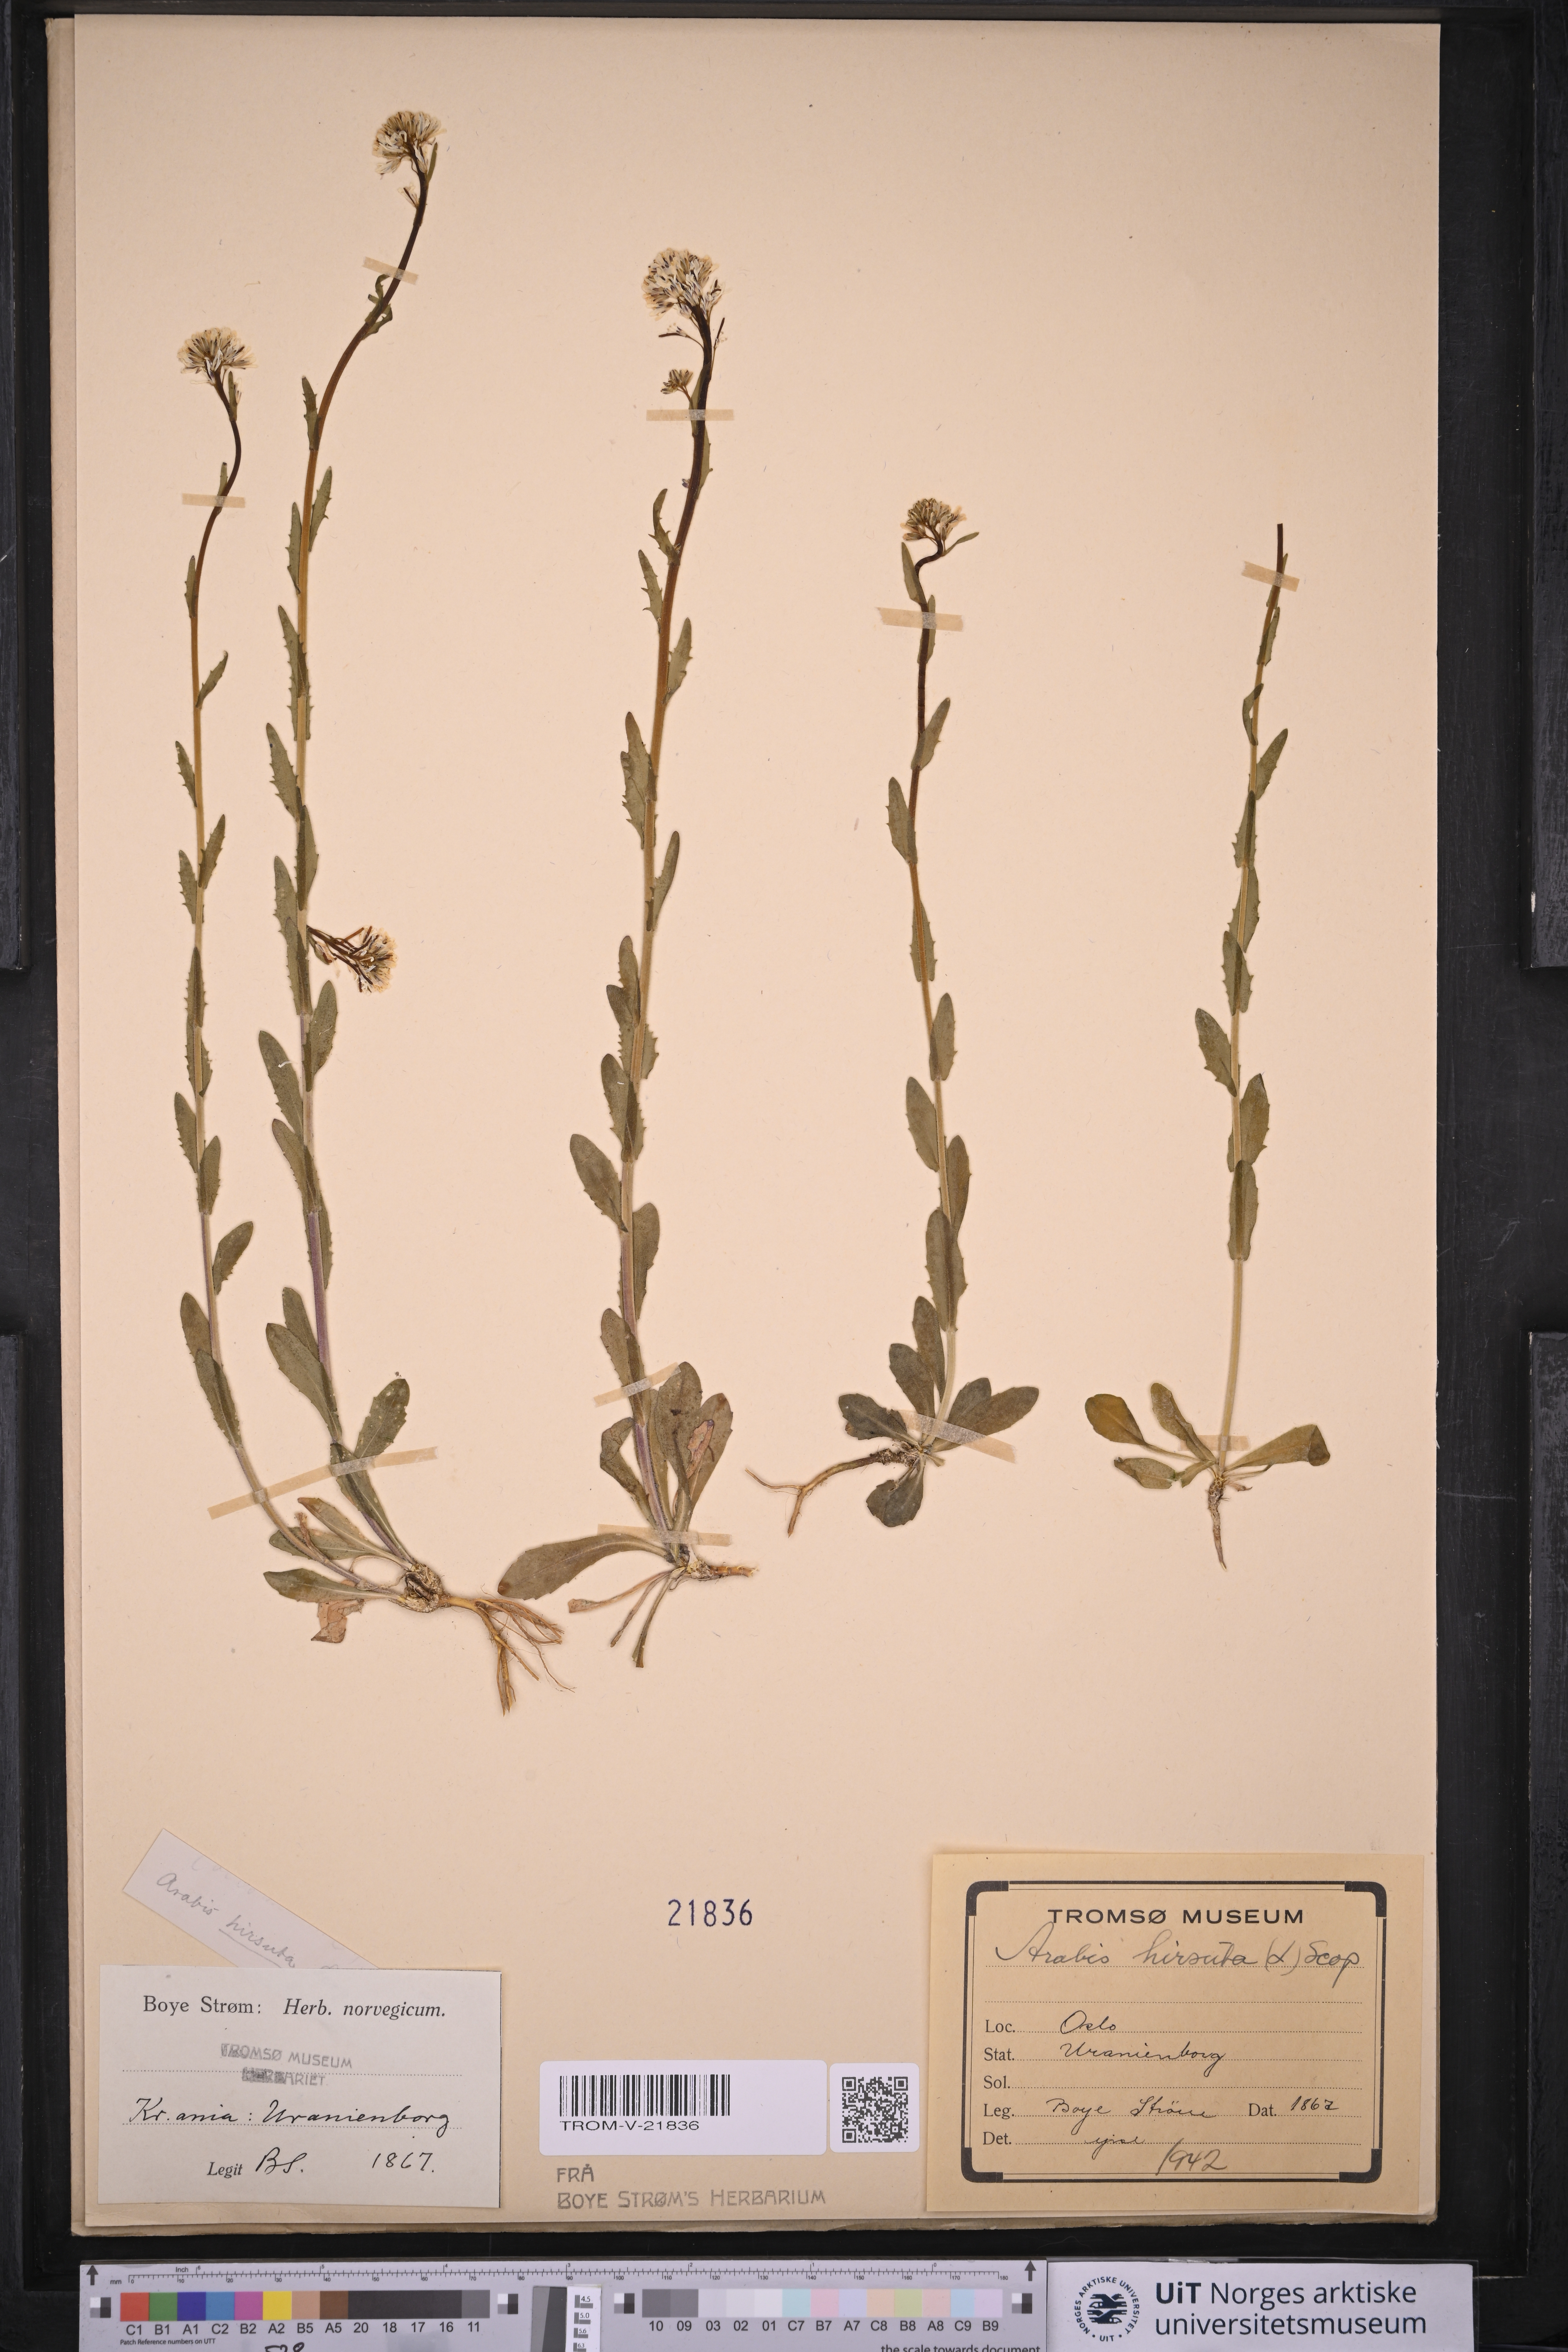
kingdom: Plantae
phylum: Tracheophyta
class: Magnoliopsida
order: Brassicales
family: Brassicaceae
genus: Arabis
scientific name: Arabis hirsuta
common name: Hairy rock-cress
